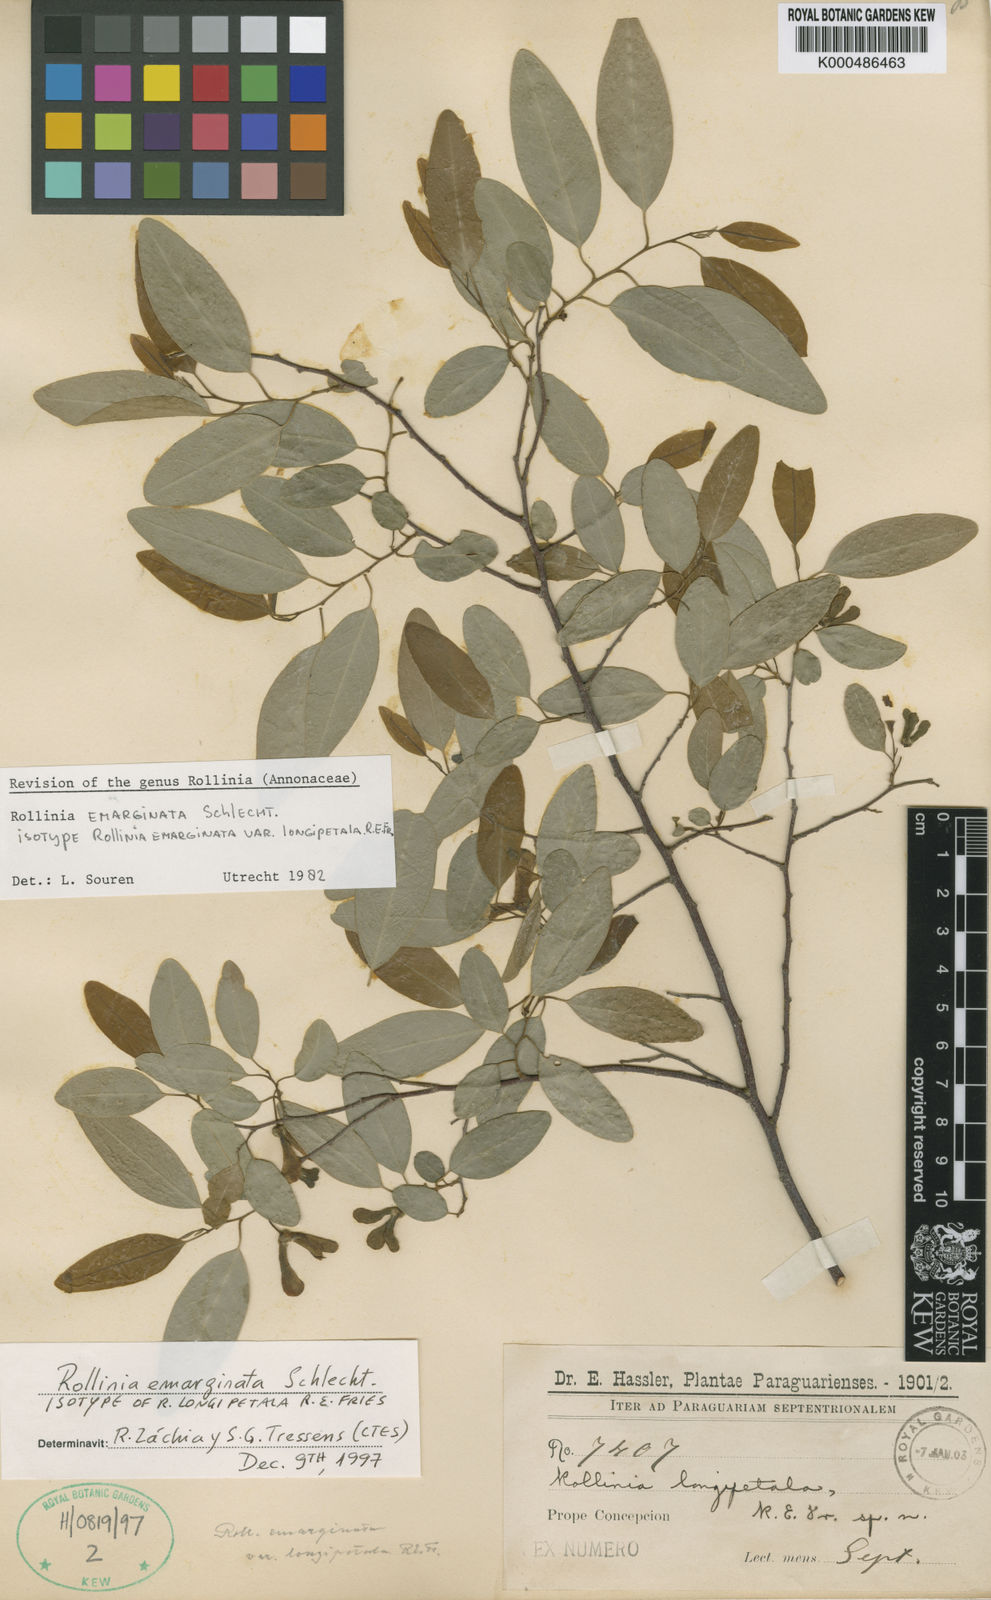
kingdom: Plantae
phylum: Tracheophyta
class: Magnoliopsida
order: Magnoliales
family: Annonaceae
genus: Annona
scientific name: Annona emarginata
